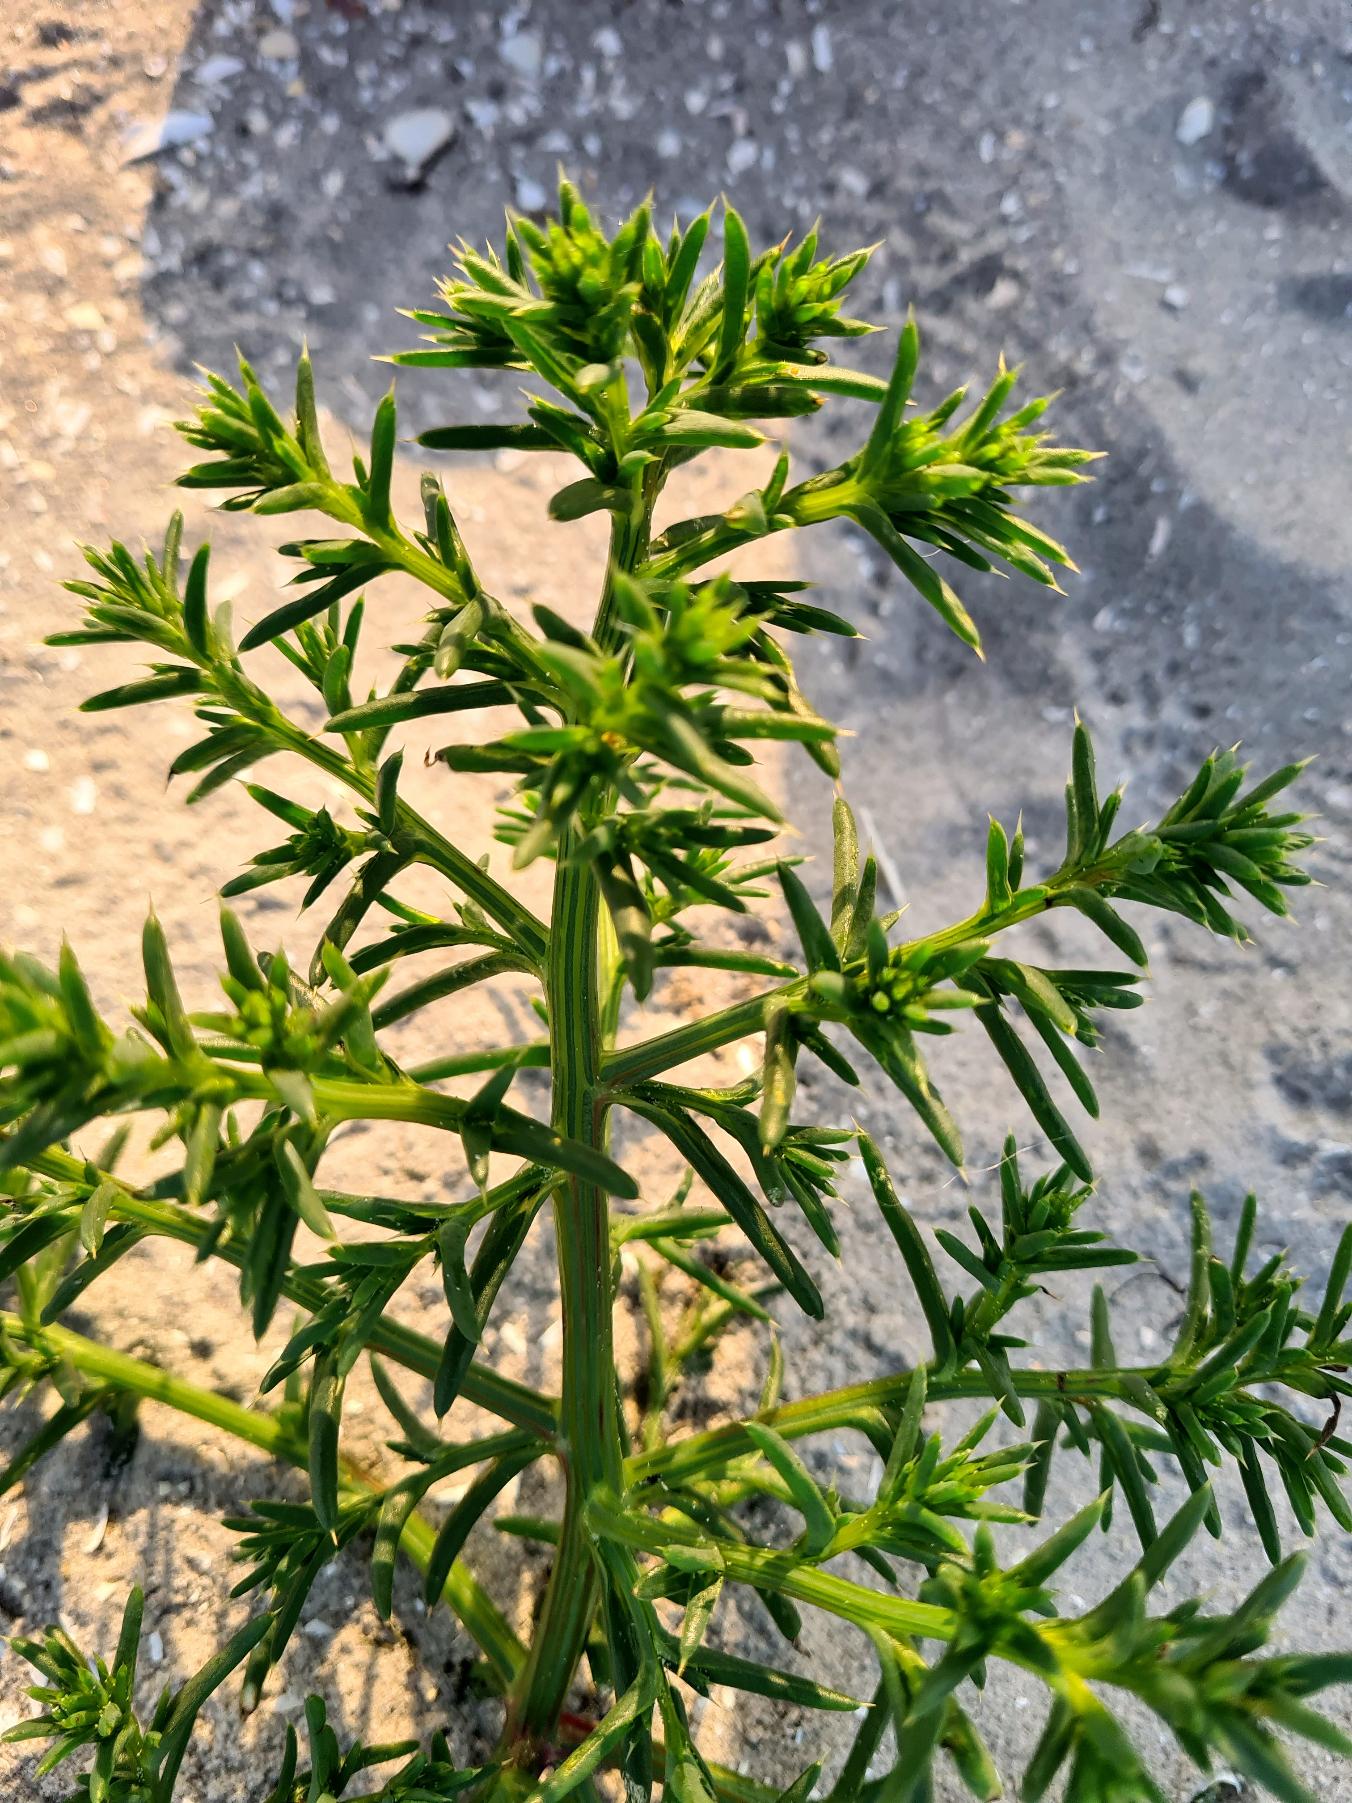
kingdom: Plantae
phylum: Tracheophyta
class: Magnoliopsida
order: Caryophyllales
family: Amaranthaceae
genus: Salsola
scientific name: Salsola kali
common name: Sodaurt
